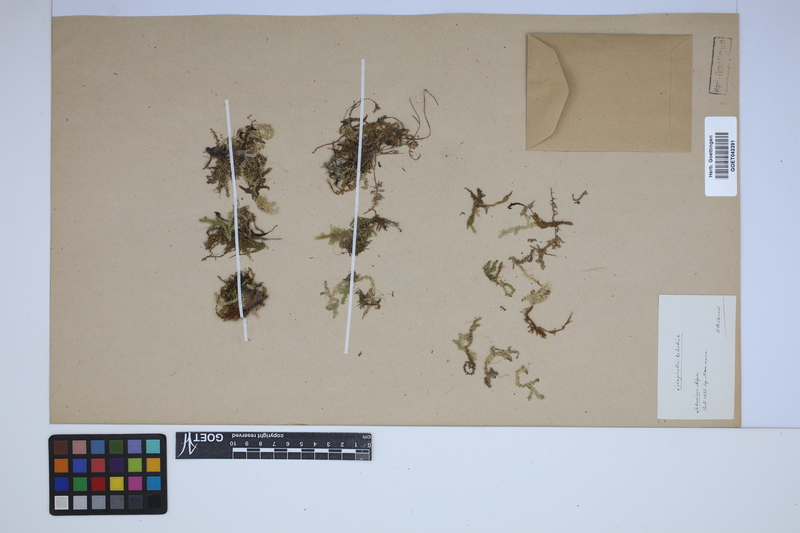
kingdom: Plantae
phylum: Tracheophyta
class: Lycopodiopsida
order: Selaginellales
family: Selaginellaceae
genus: Selaginella
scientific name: Selaginella helvetica
